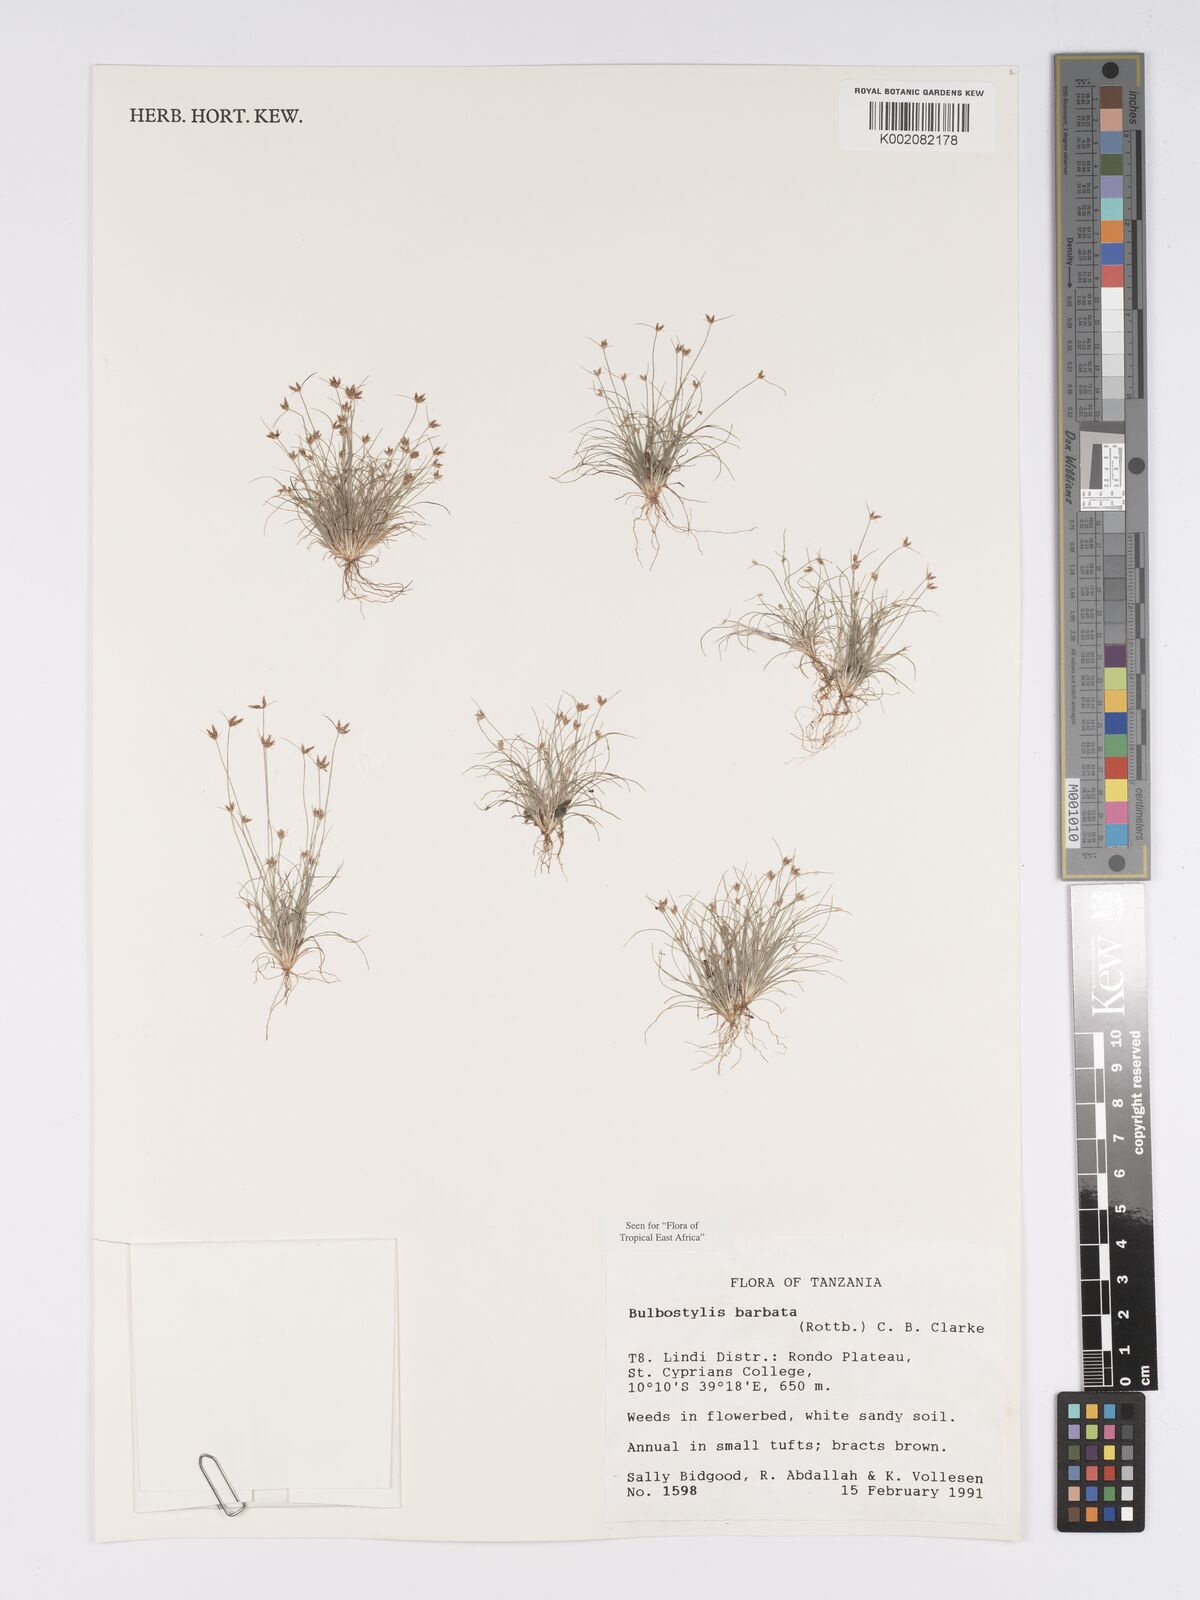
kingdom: Plantae
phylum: Tracheophyta
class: Liliopsida
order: Poales
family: Cyperaceae
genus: Bulbostylis
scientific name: Bulbostylis barbata
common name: Watergrass
